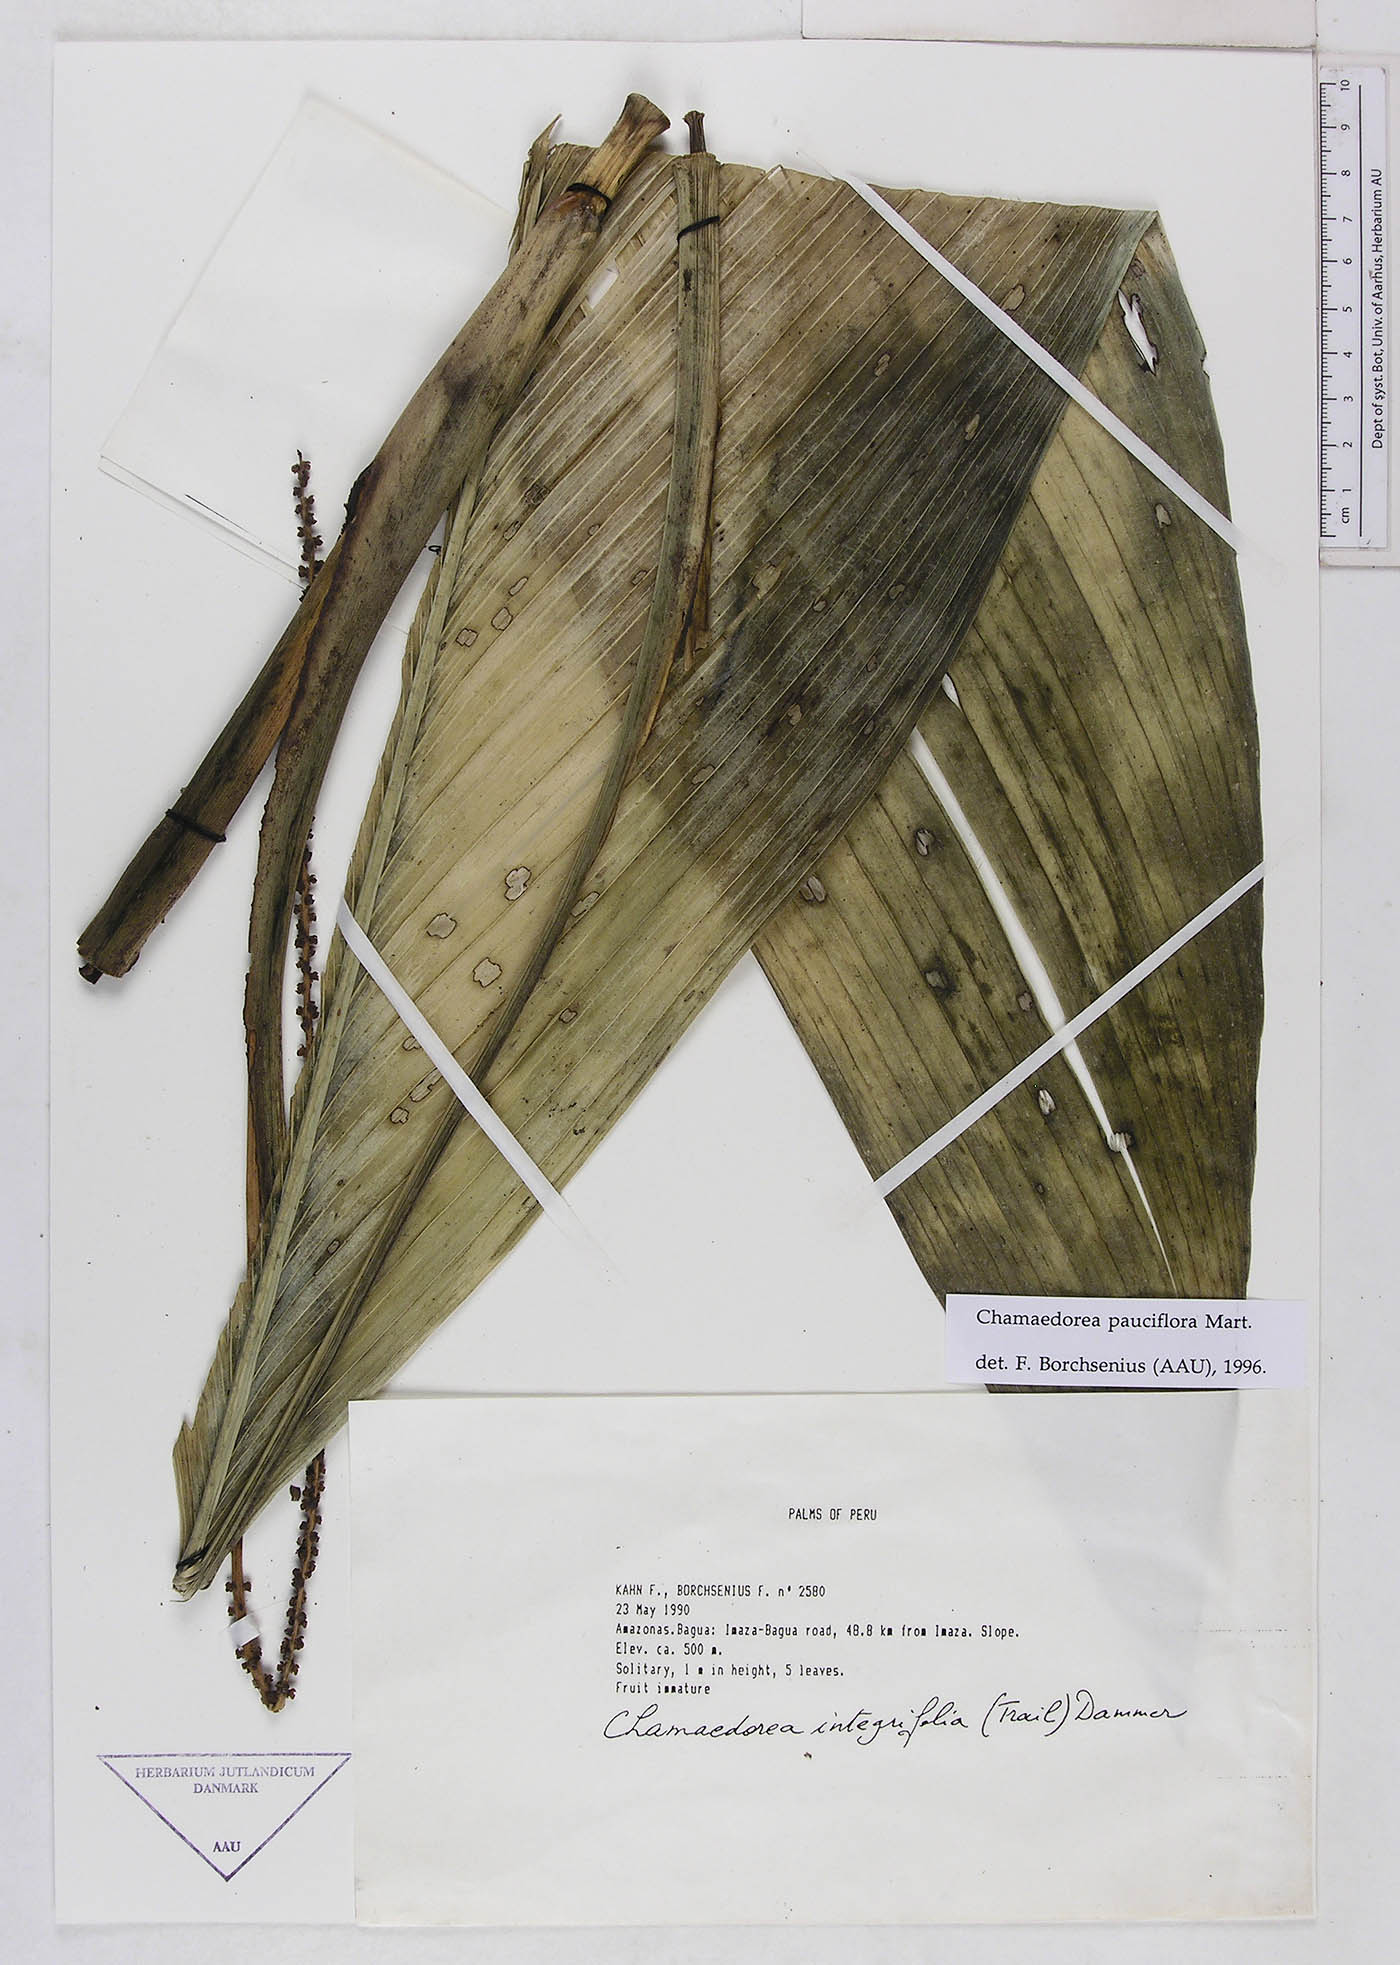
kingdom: Plantae
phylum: Tracheophyta
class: Liliopsida
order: Arecales
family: Arecaceae
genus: Chamaedorea
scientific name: Chamaedorea pauciflora
